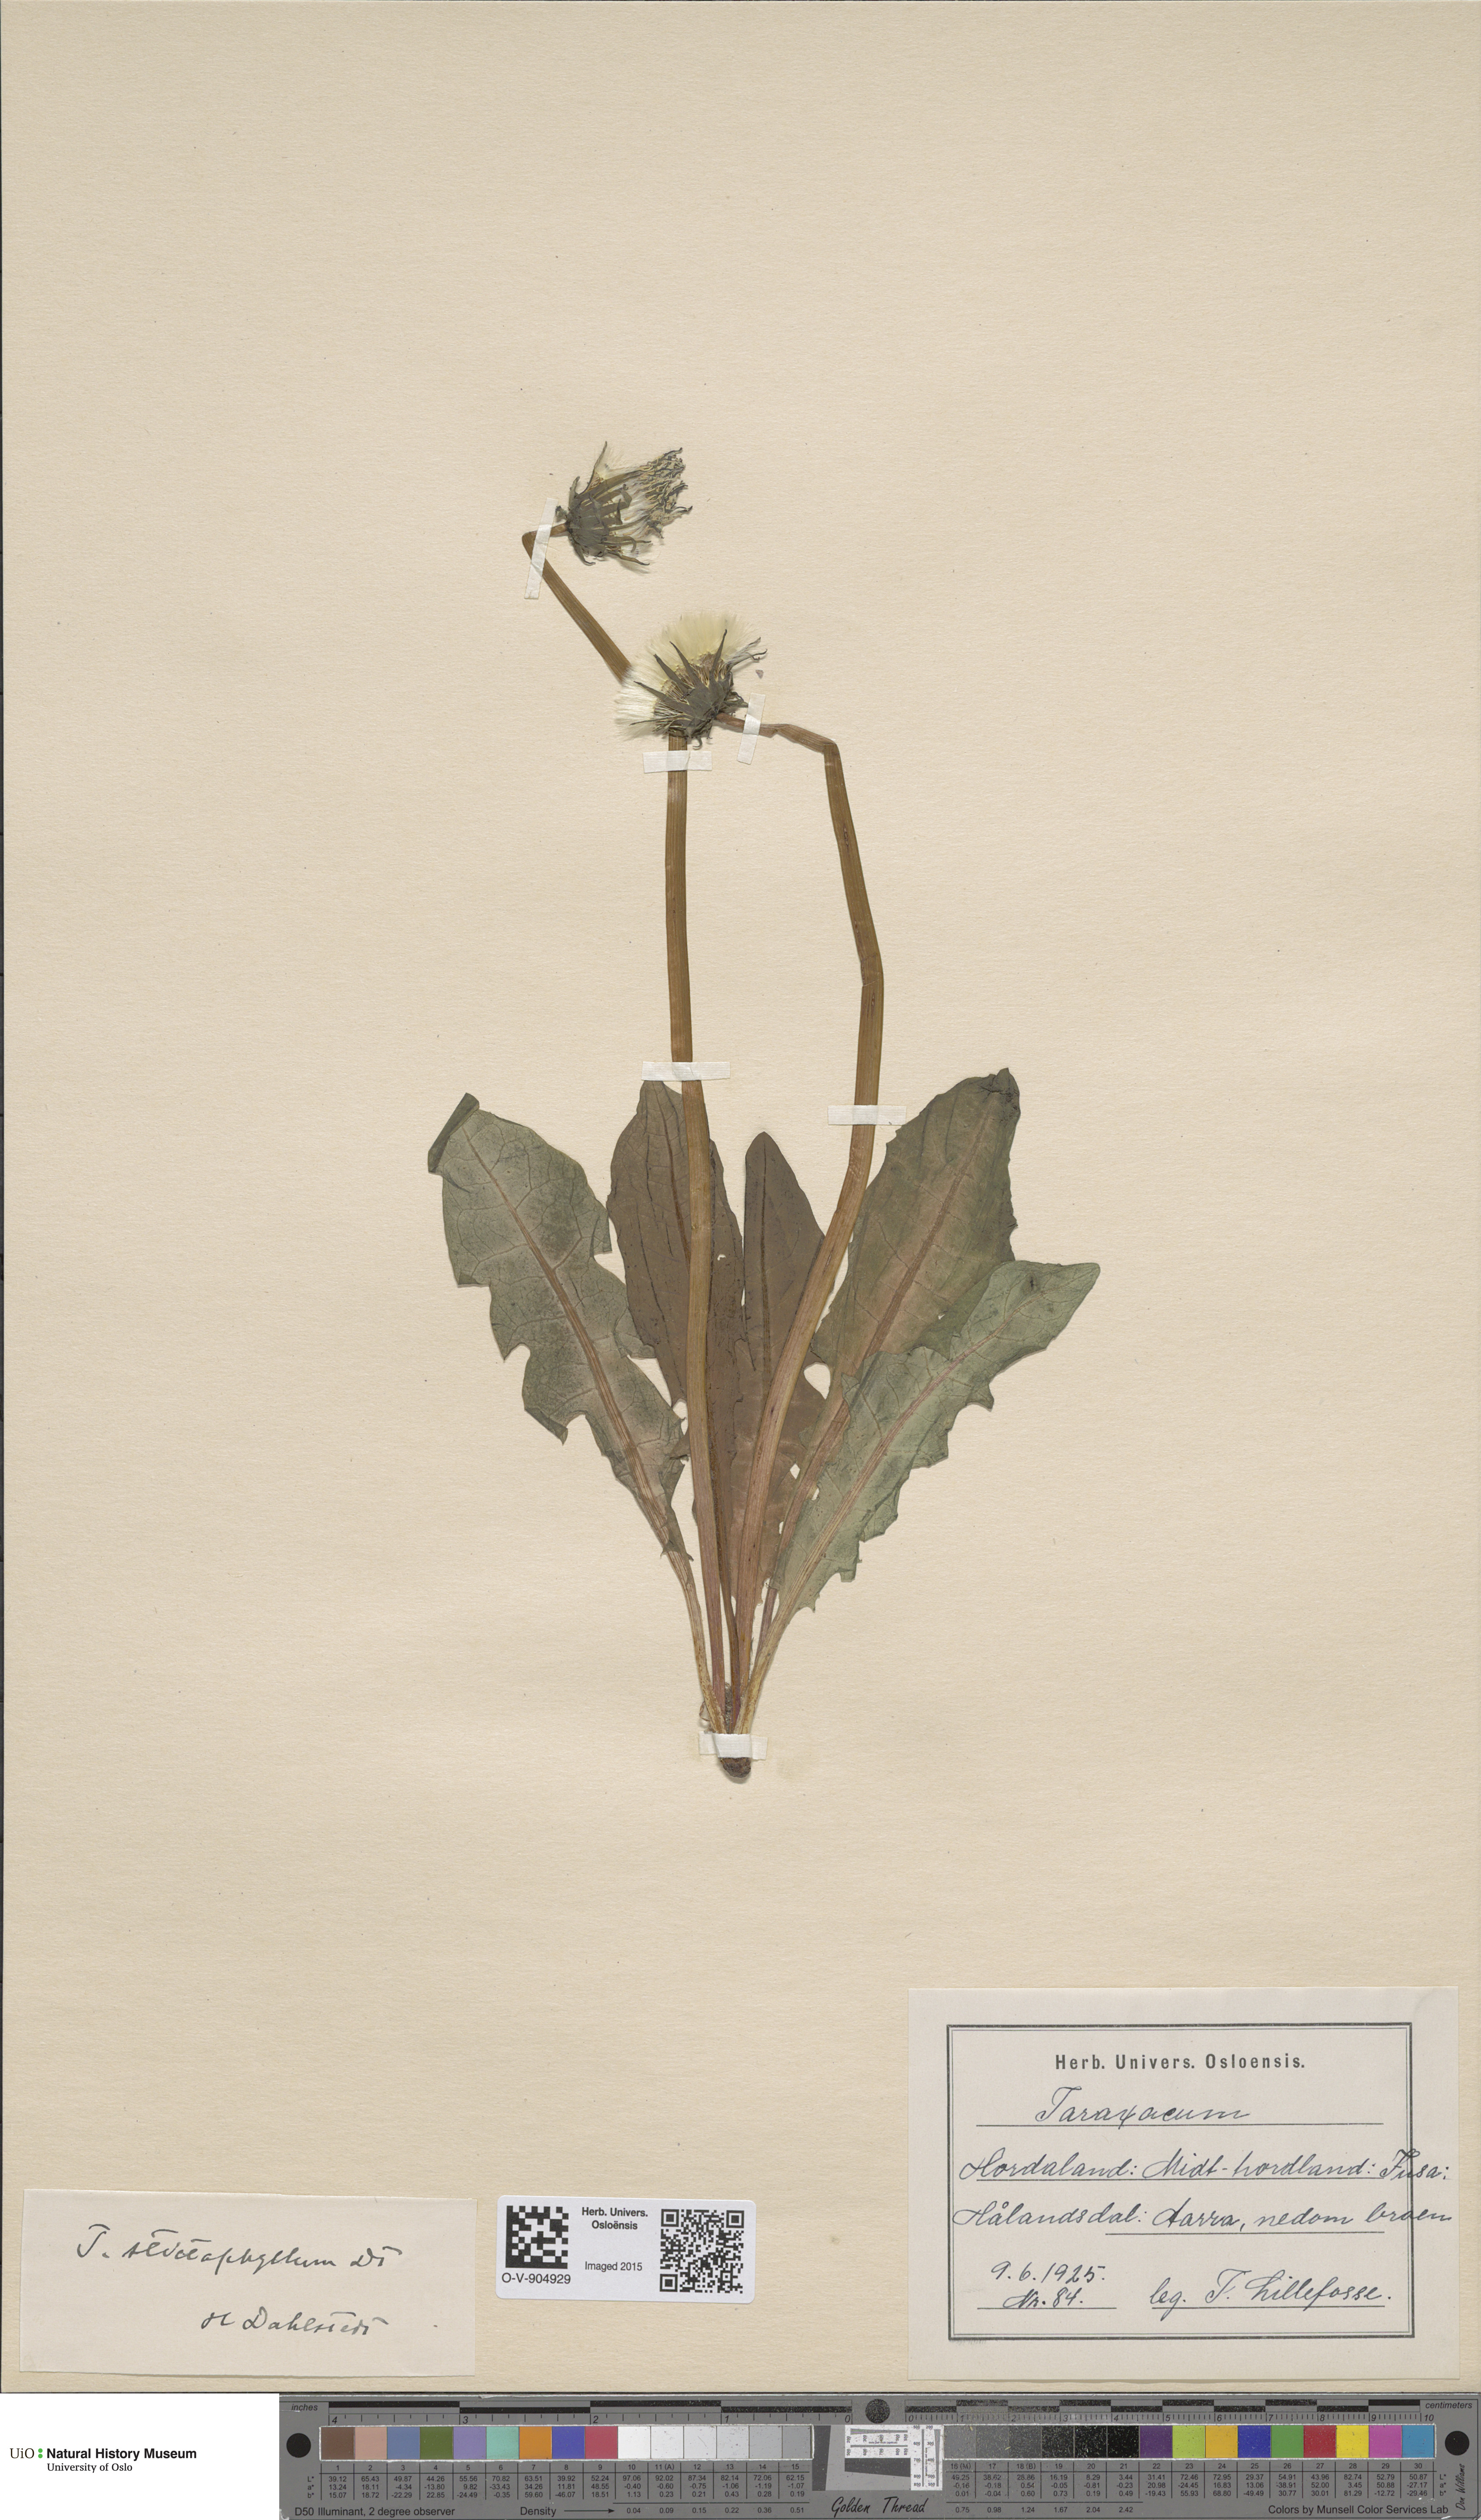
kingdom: Plantae
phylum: Tracheophyta
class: Magnoliopsida
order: Asterales
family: Asteraceae
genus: Taraxacum
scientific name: Taraxacum stictophyllum
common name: Stiff-leaved dandelion
